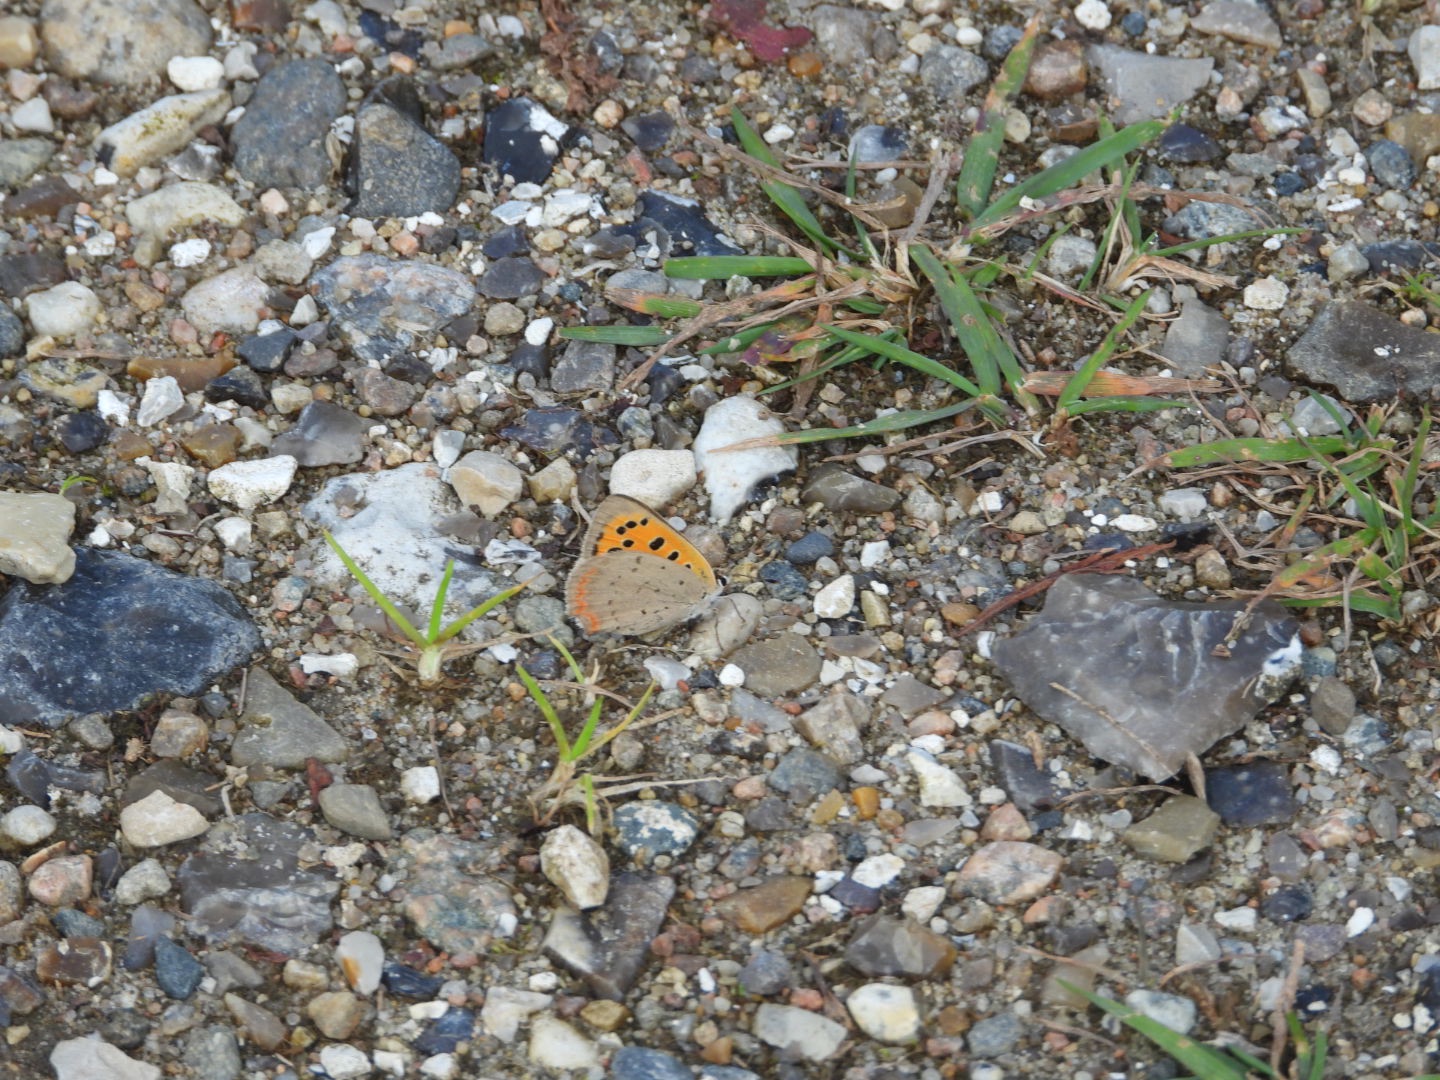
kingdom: Animalia
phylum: Arthropoda
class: Insecta
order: Lepidoptera
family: Lycaenidae
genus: Lycaena
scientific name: Lycaena phlaeas
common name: Lille ildfugl
